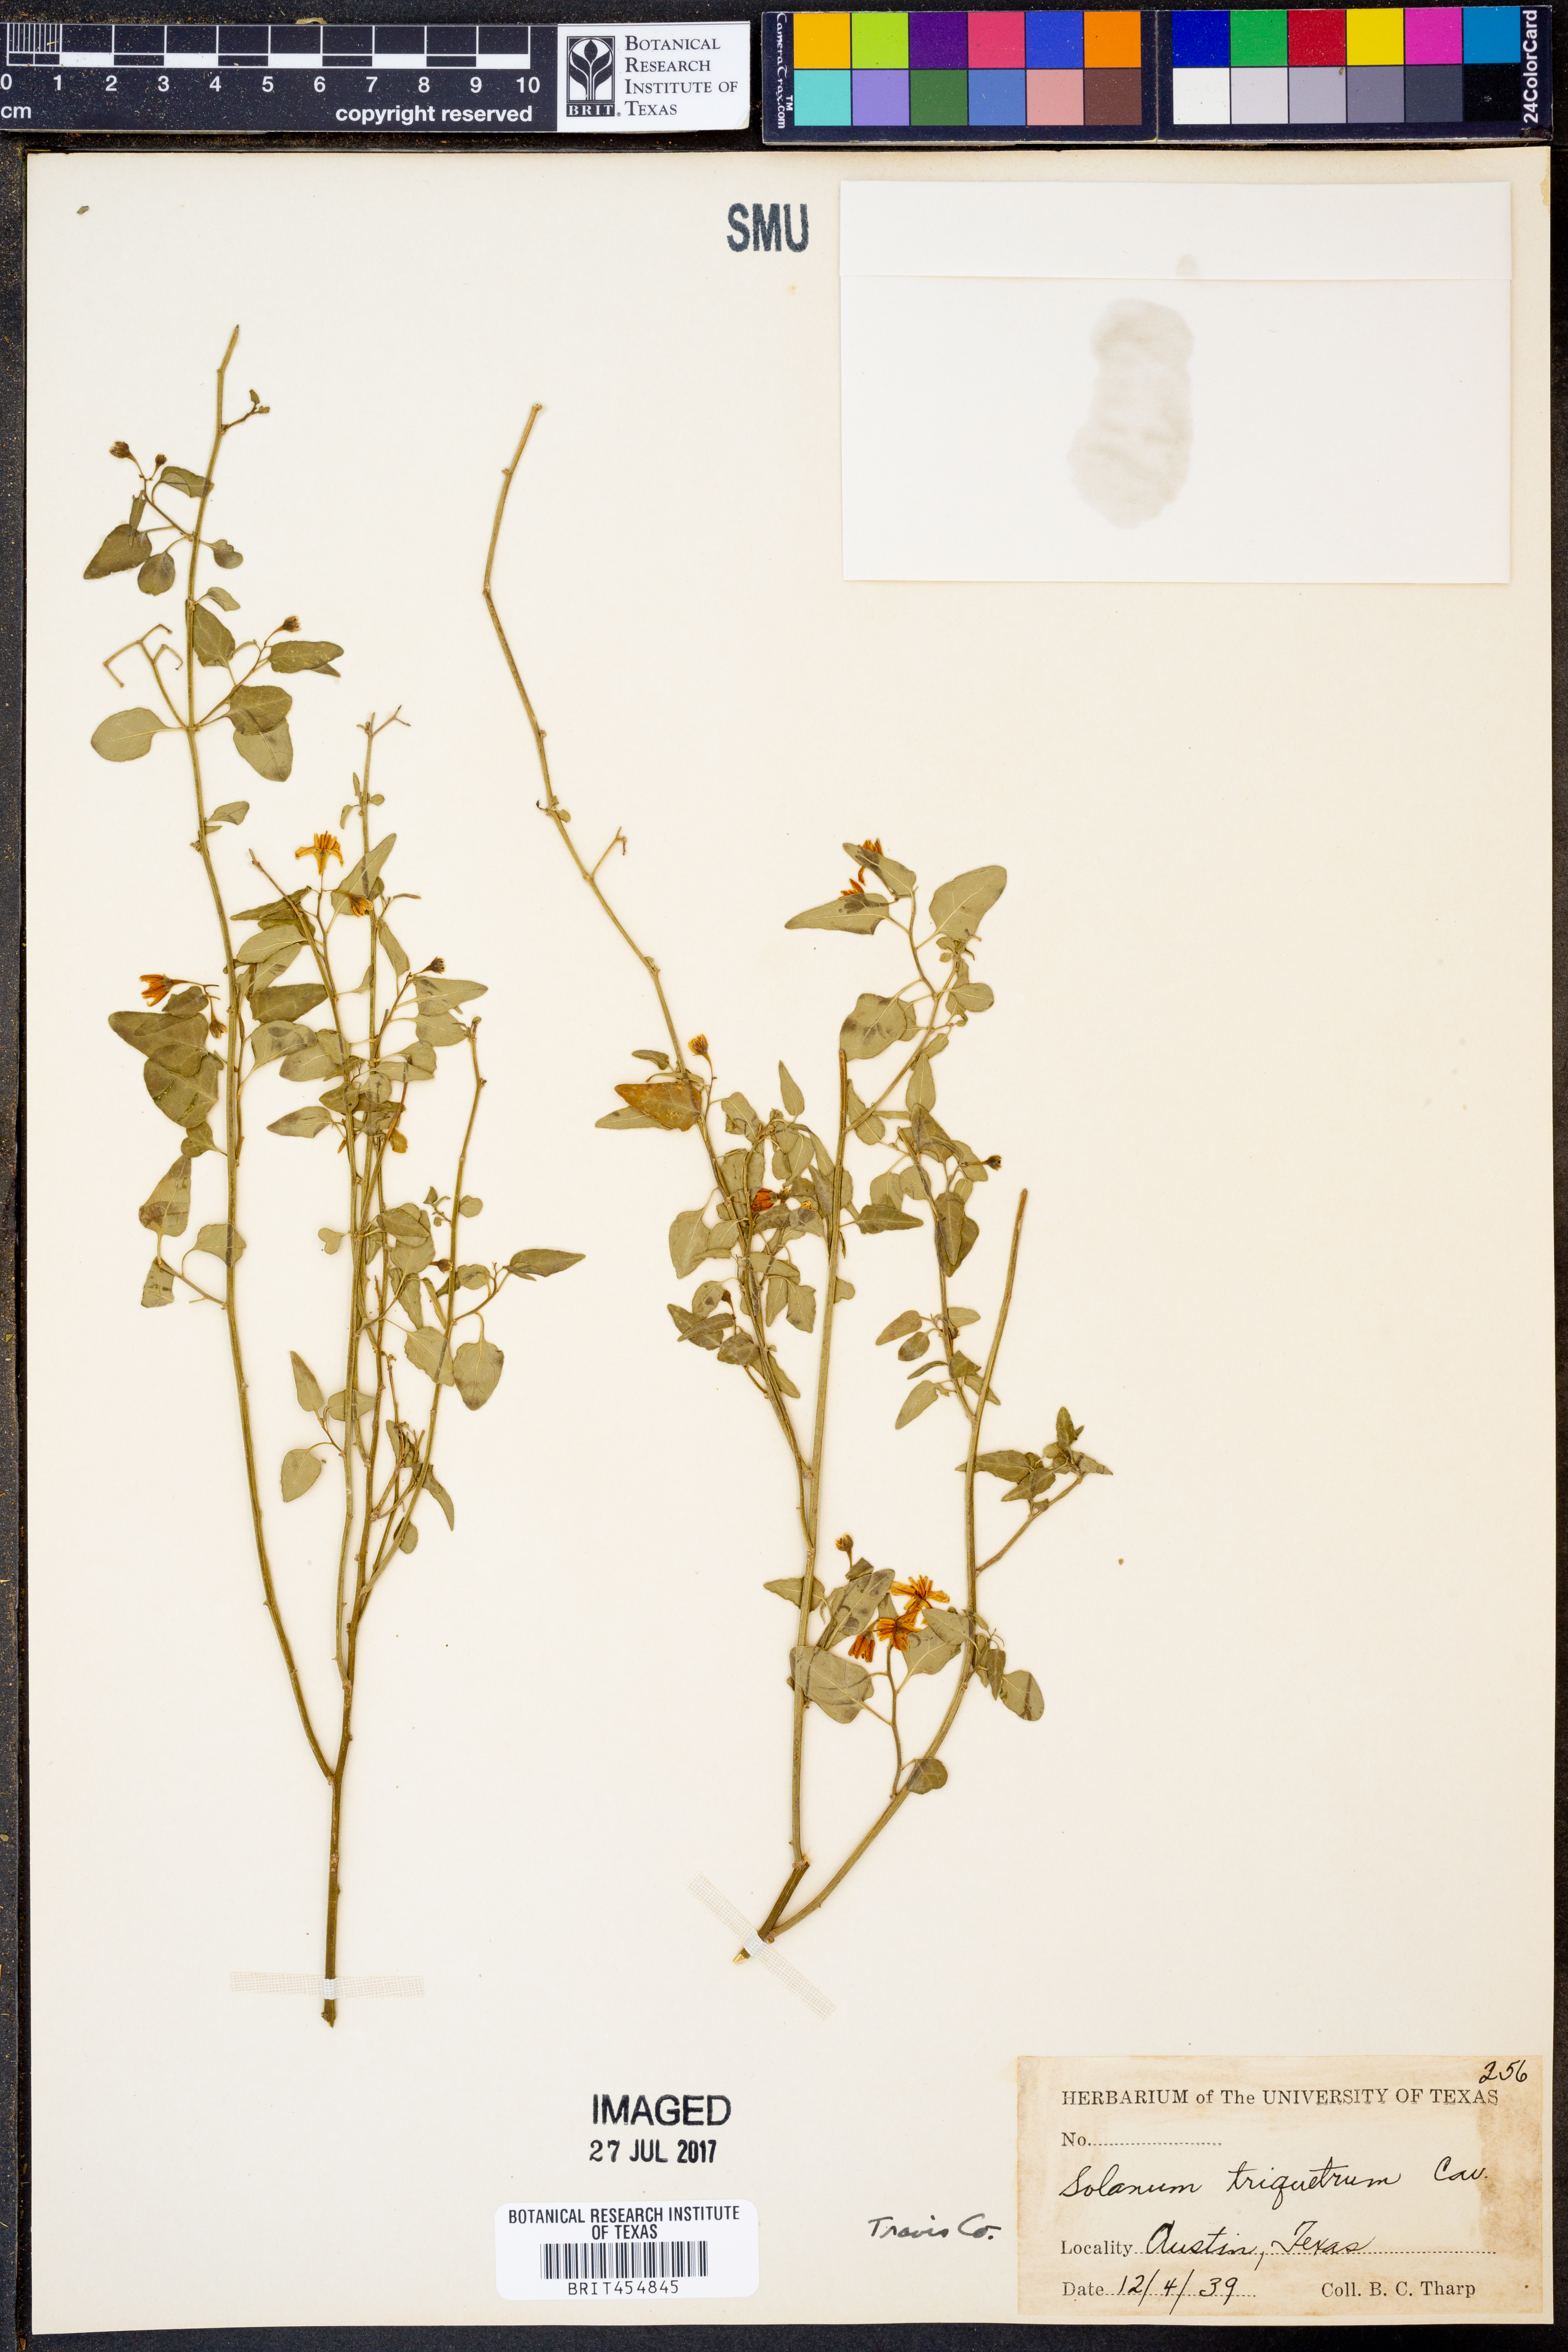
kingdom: Plantae
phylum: Tracheophyta
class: Magnoliopsida
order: Solanales
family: Solanaceae
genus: Solanum
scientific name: Solanum triquetrum
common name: Texas nightshade
